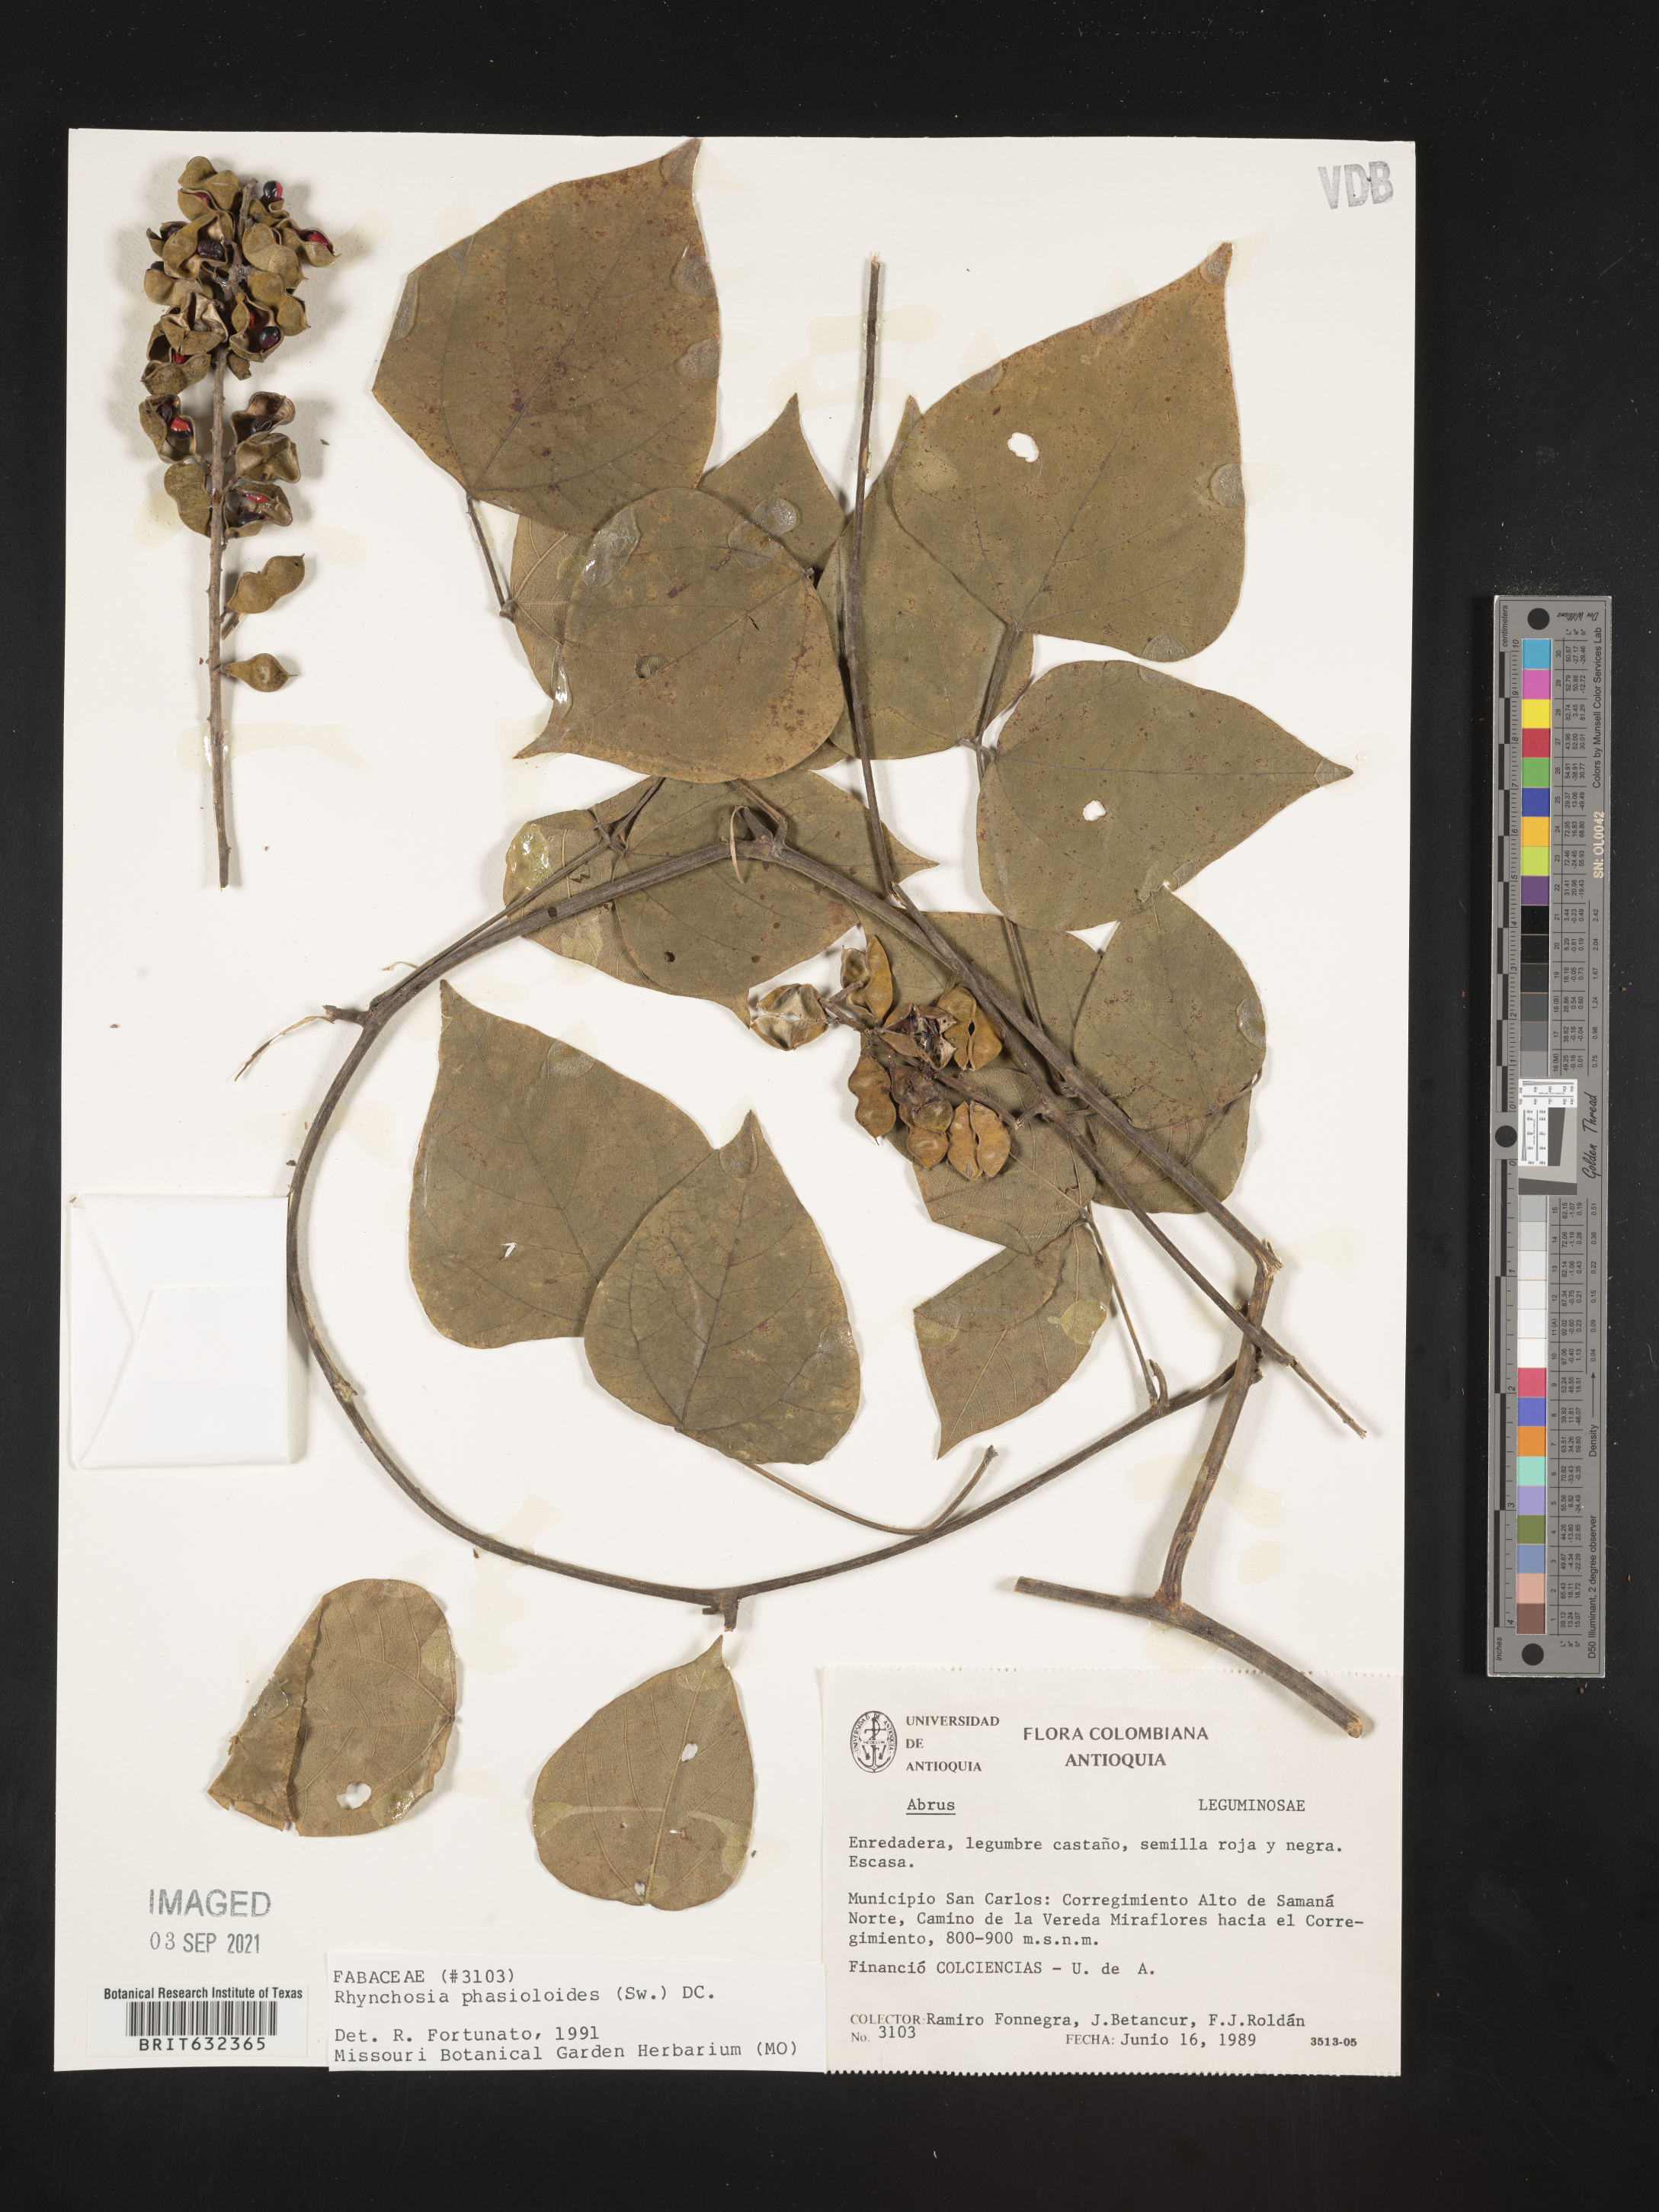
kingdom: Plantae
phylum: Tracheophyta
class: Magnoliopsida
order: Fabales
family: Fabaceae
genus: Rhynchosia
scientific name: Rhynchosia
